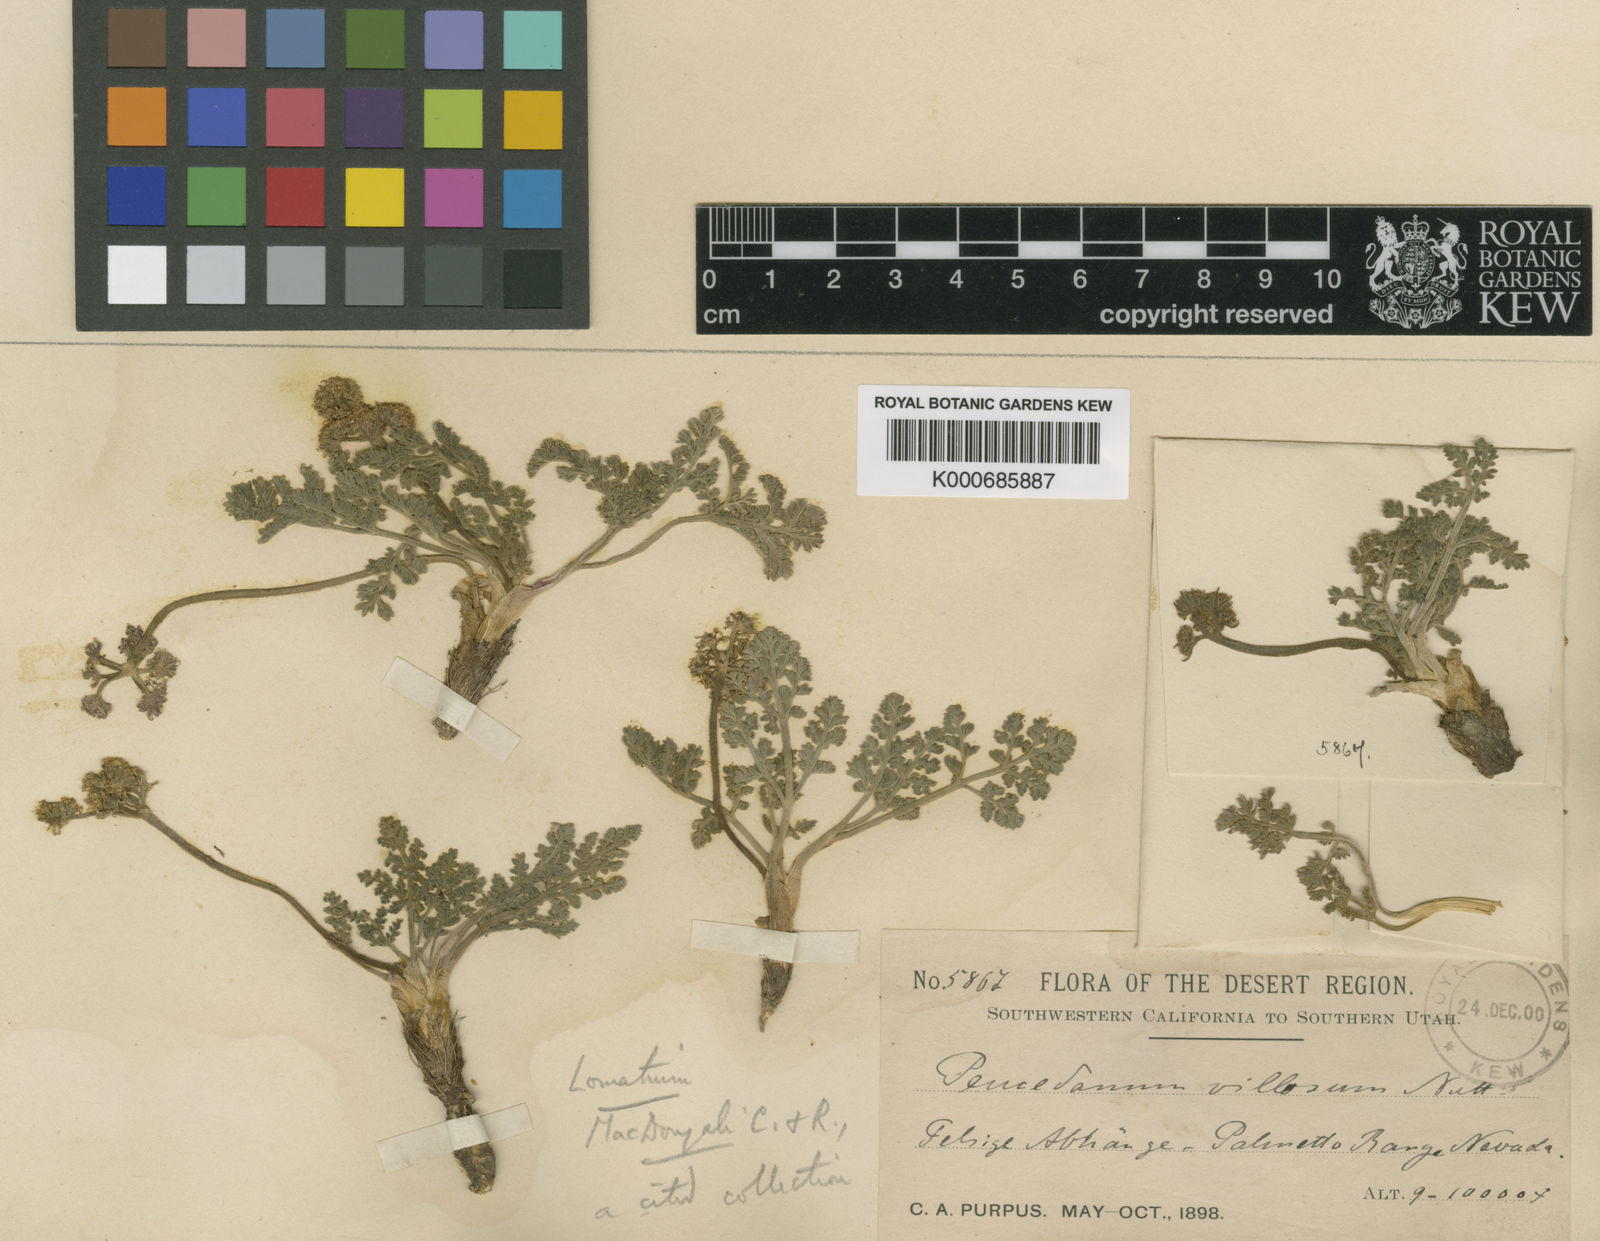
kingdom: Plantae
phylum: Tracheophyta
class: Magnoliopsida
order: Apiales
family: Apiaceae
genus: Lomatium
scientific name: Lomatium foeniculaceum
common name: Desert-parsley
